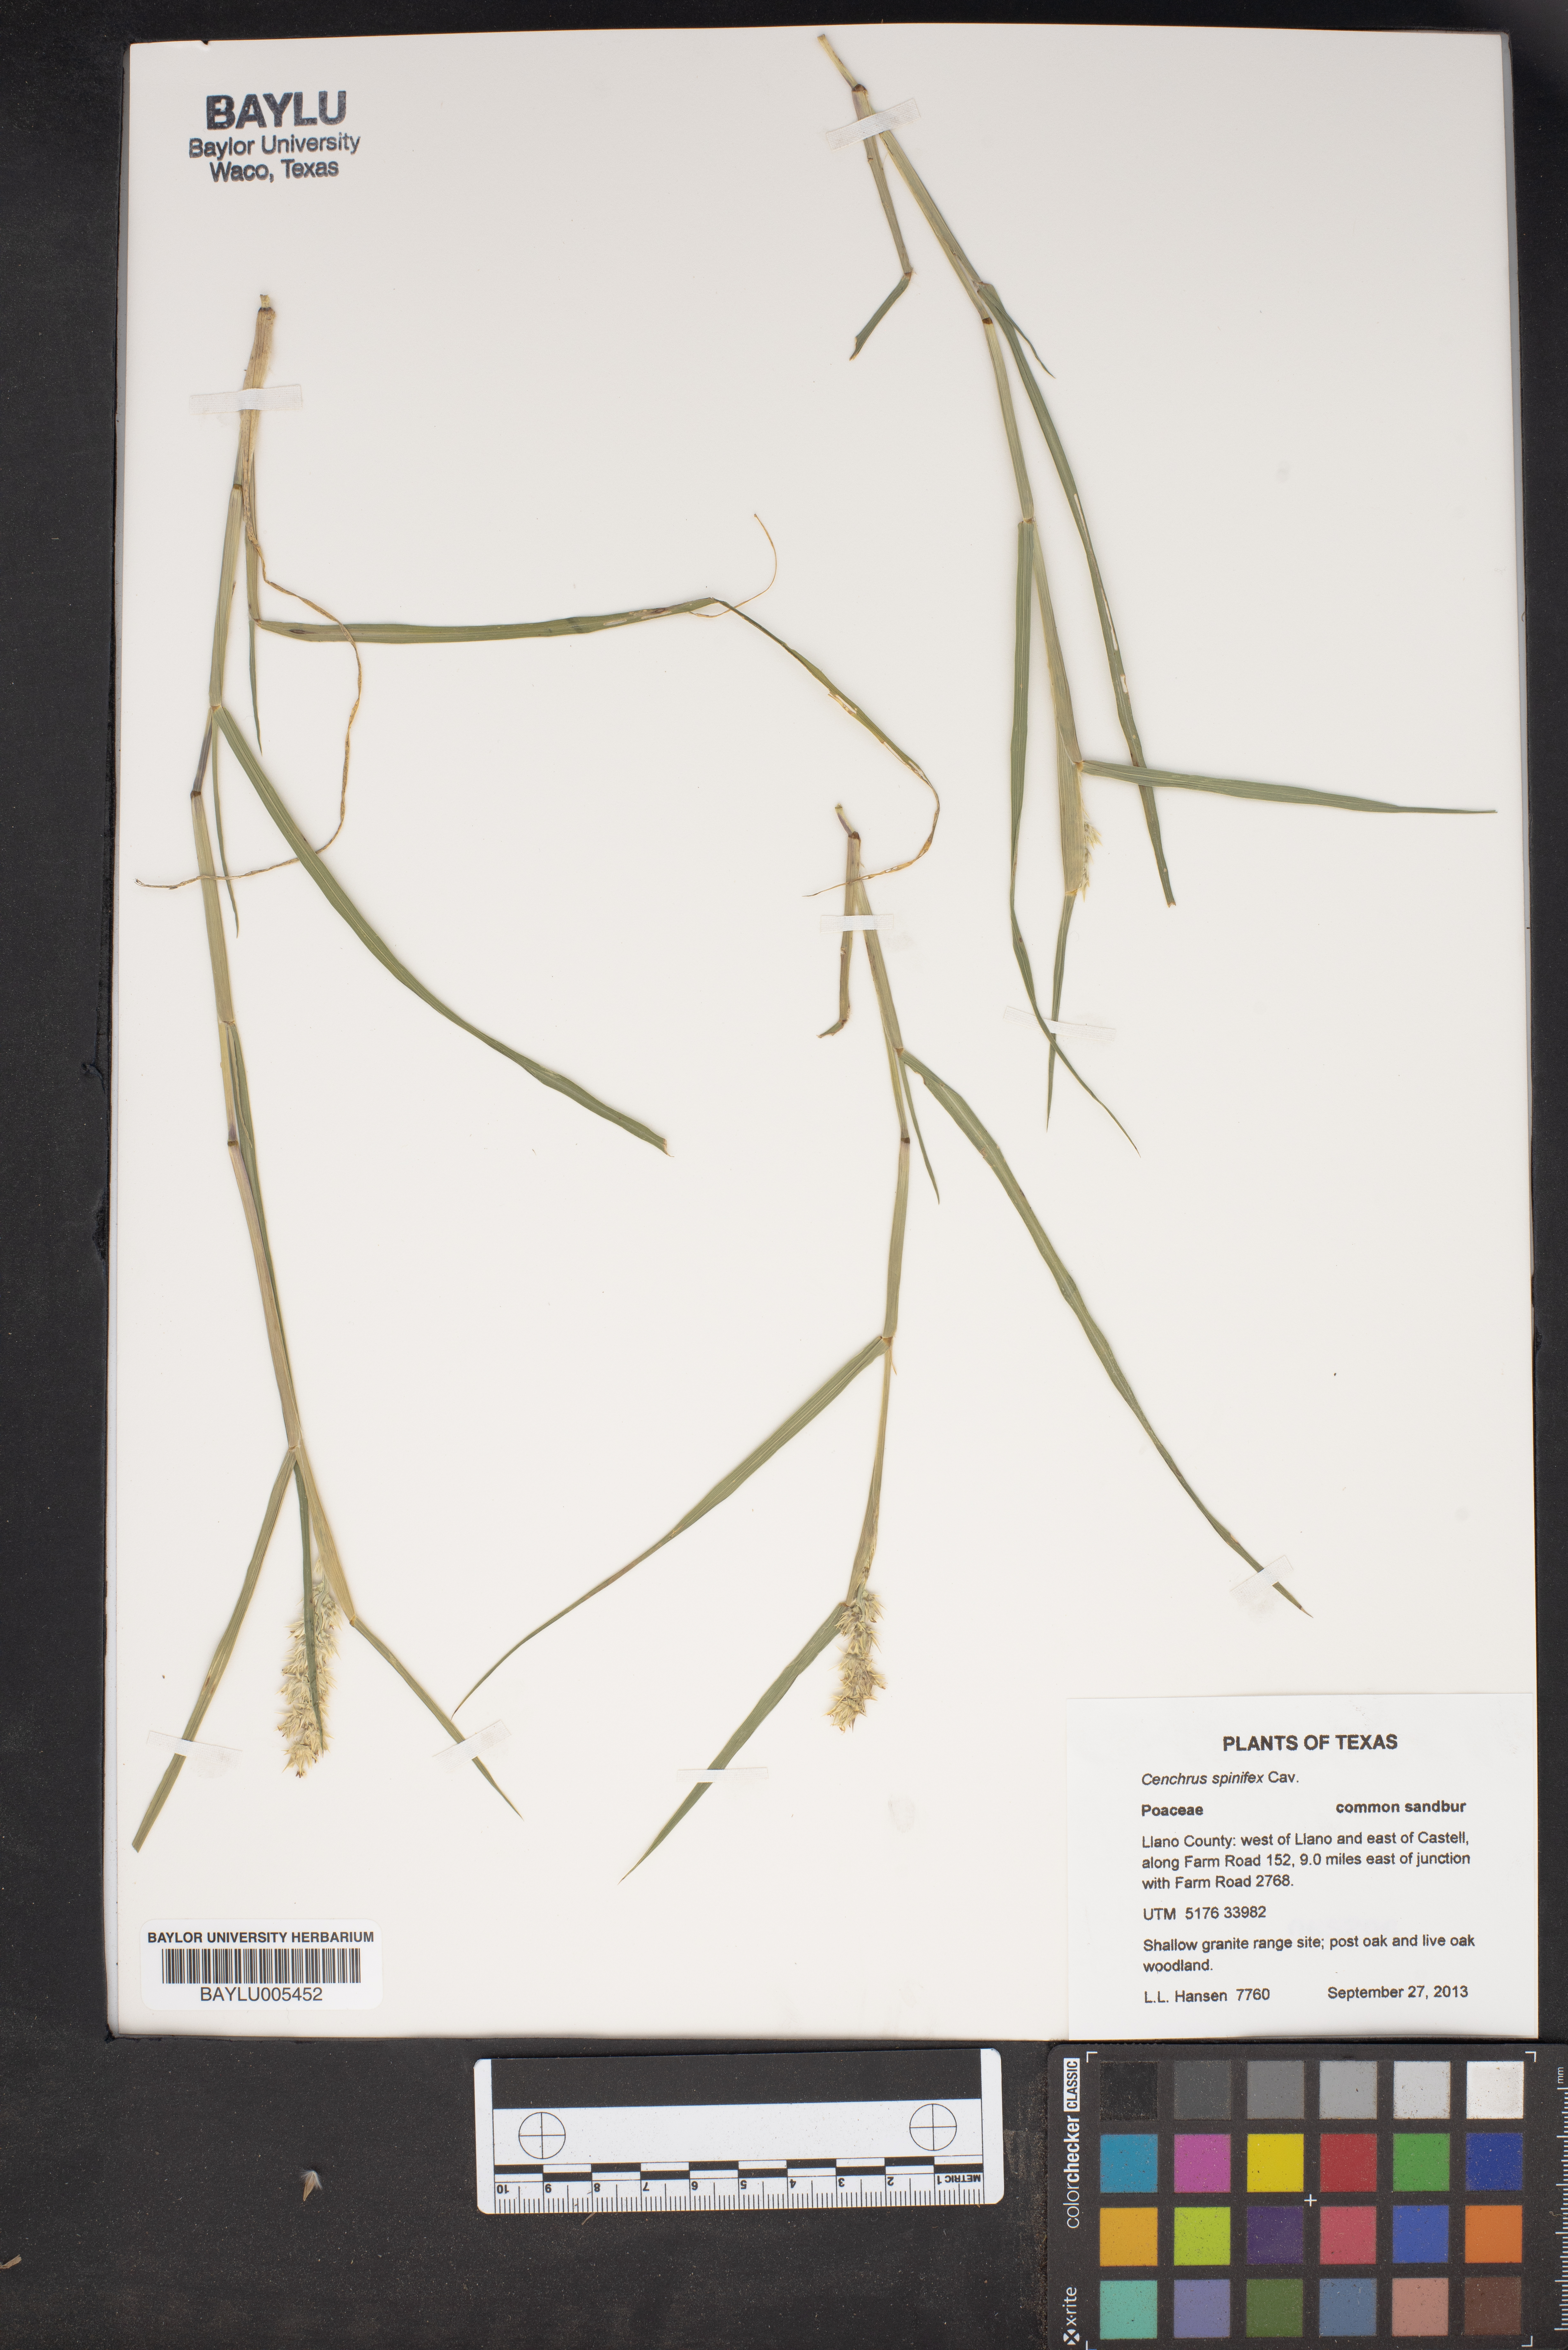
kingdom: Plantae
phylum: Tracheophyta
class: Liliopsida
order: Poales
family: Poaceae
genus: Cenchrus
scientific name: Cenchrus spinifex
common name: Coast sandbur
